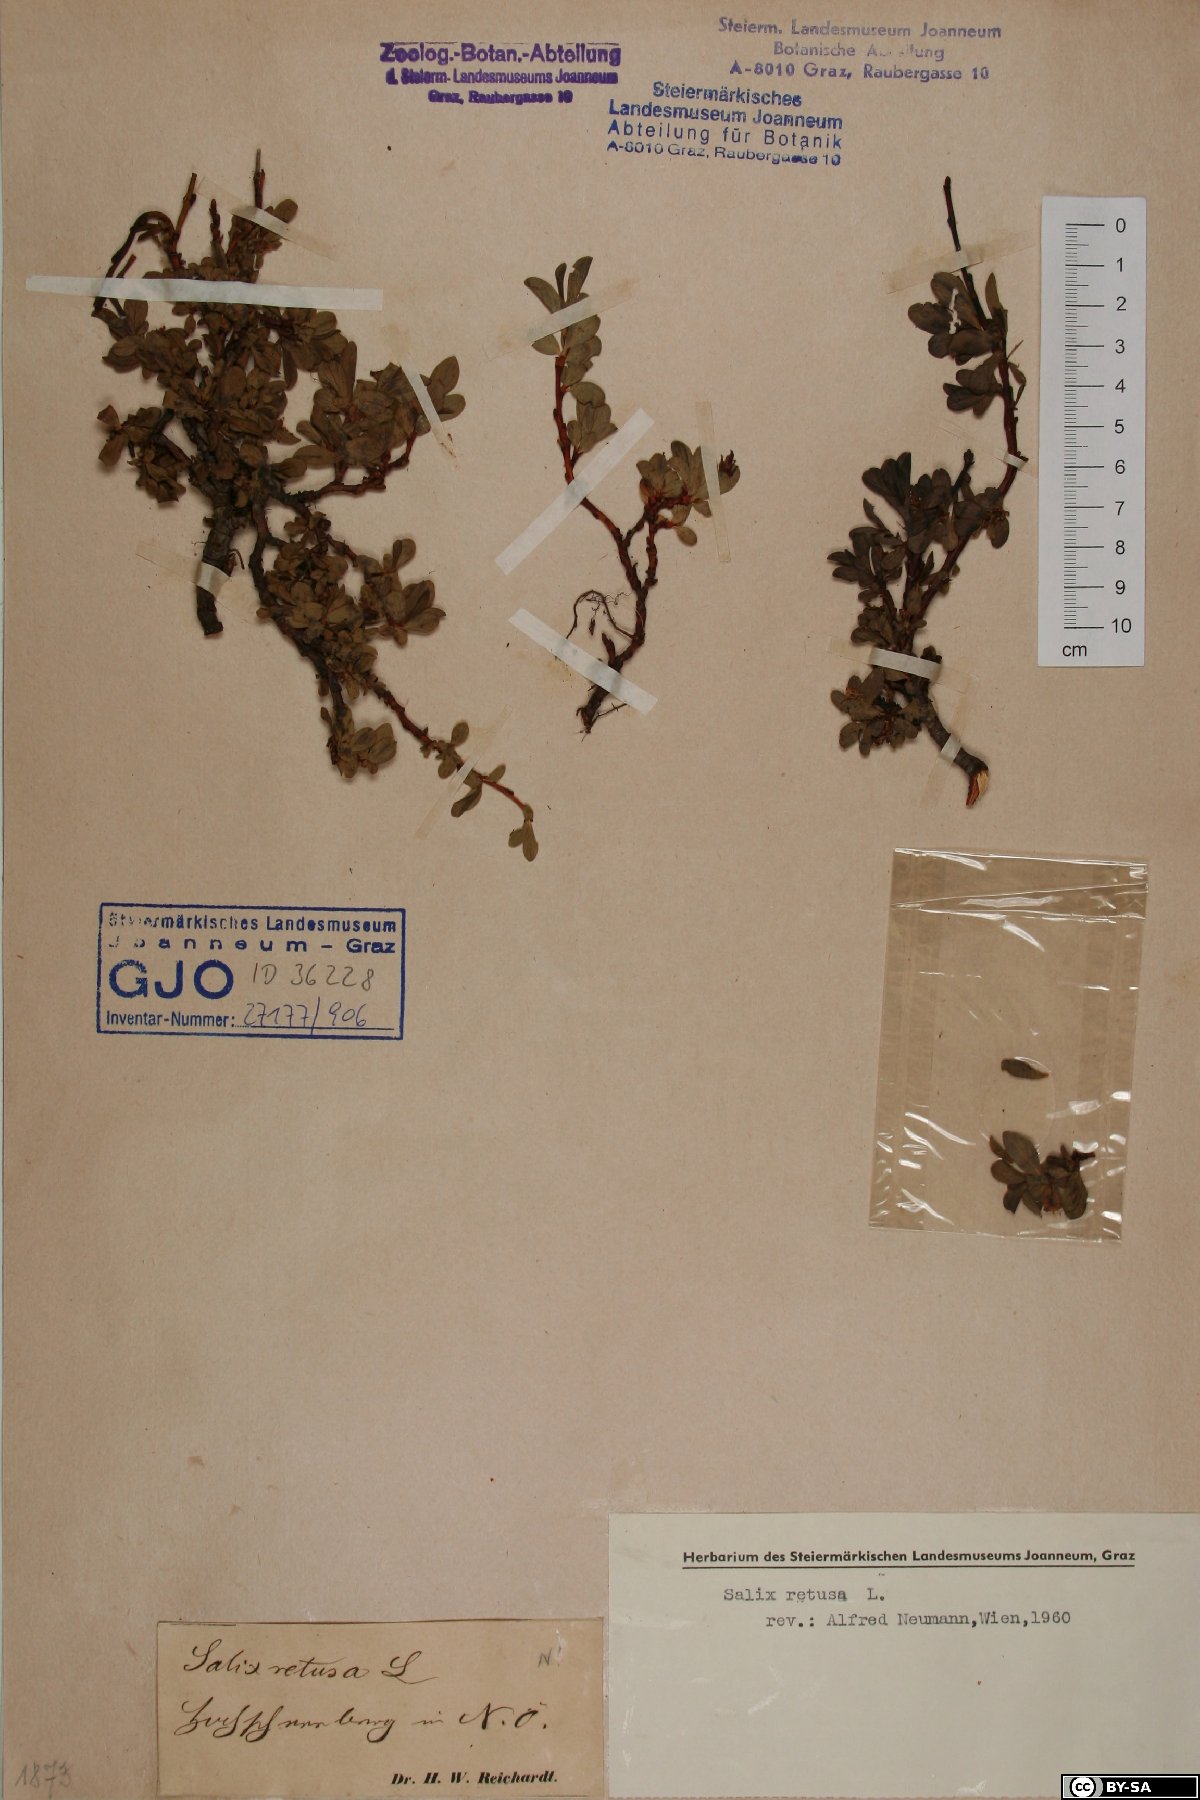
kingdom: Plantae
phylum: Tracheophyta
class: Magnoliopsida
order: Malpighiales
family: Salicaceae
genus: Salix
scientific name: Salix retusa
